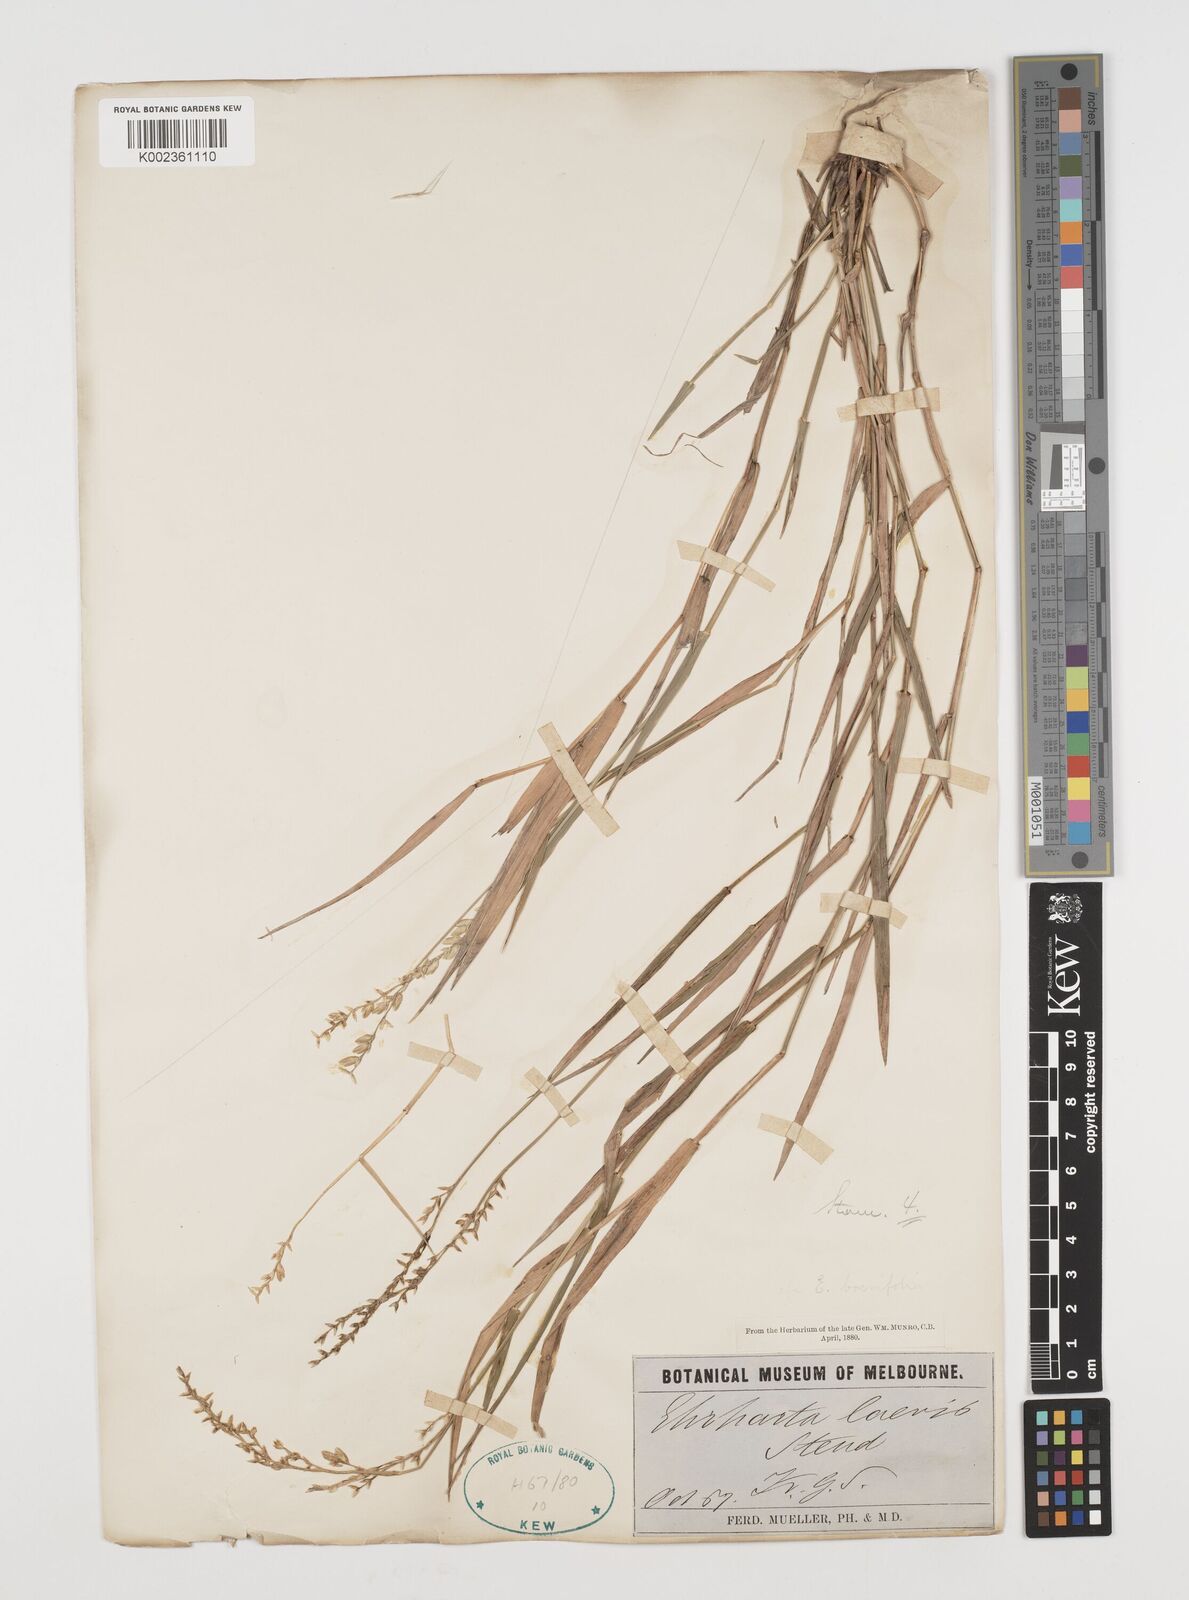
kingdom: Plantae
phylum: Tracheophyta
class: Liliopsida
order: Poales
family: Poaceae
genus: Tetrarrhena
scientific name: Tetrarrhena laevis
